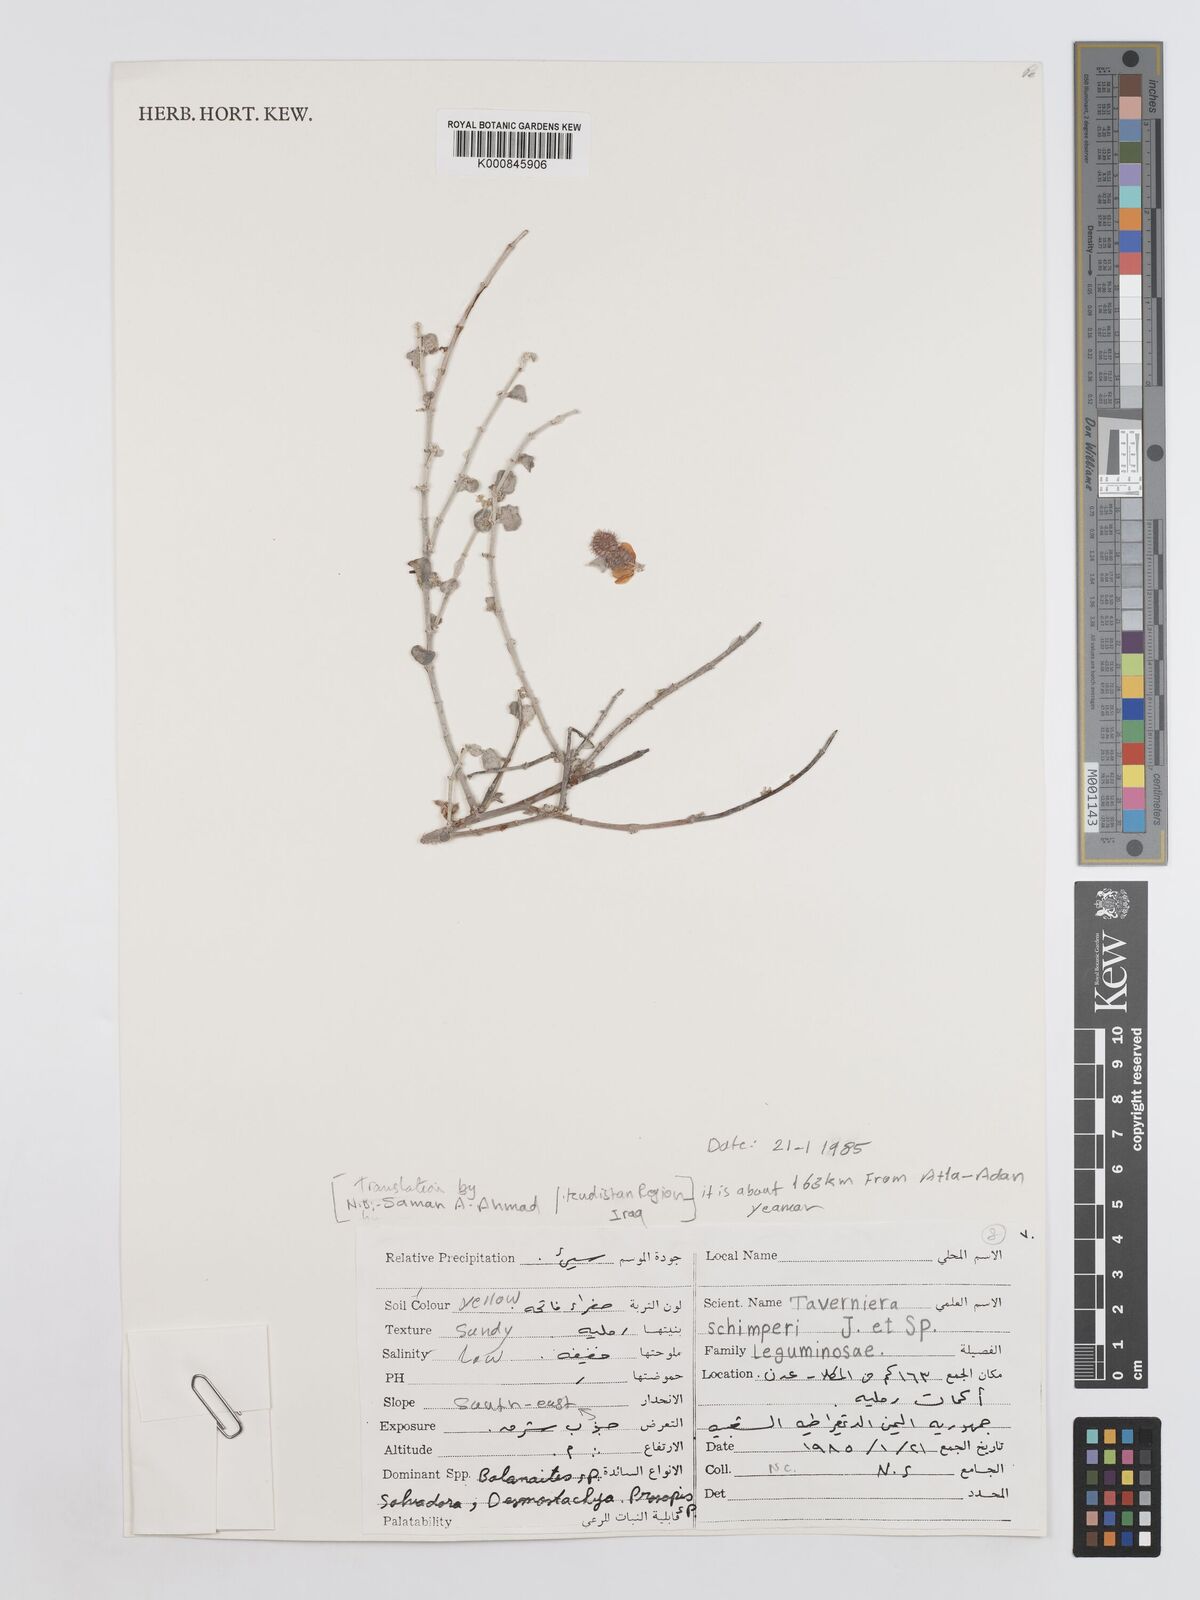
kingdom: Plantae
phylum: Tracheophyta
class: Magnoliopsida
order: Fabales
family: Fabaceae
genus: Taverniera
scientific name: Taverniera schimperi
